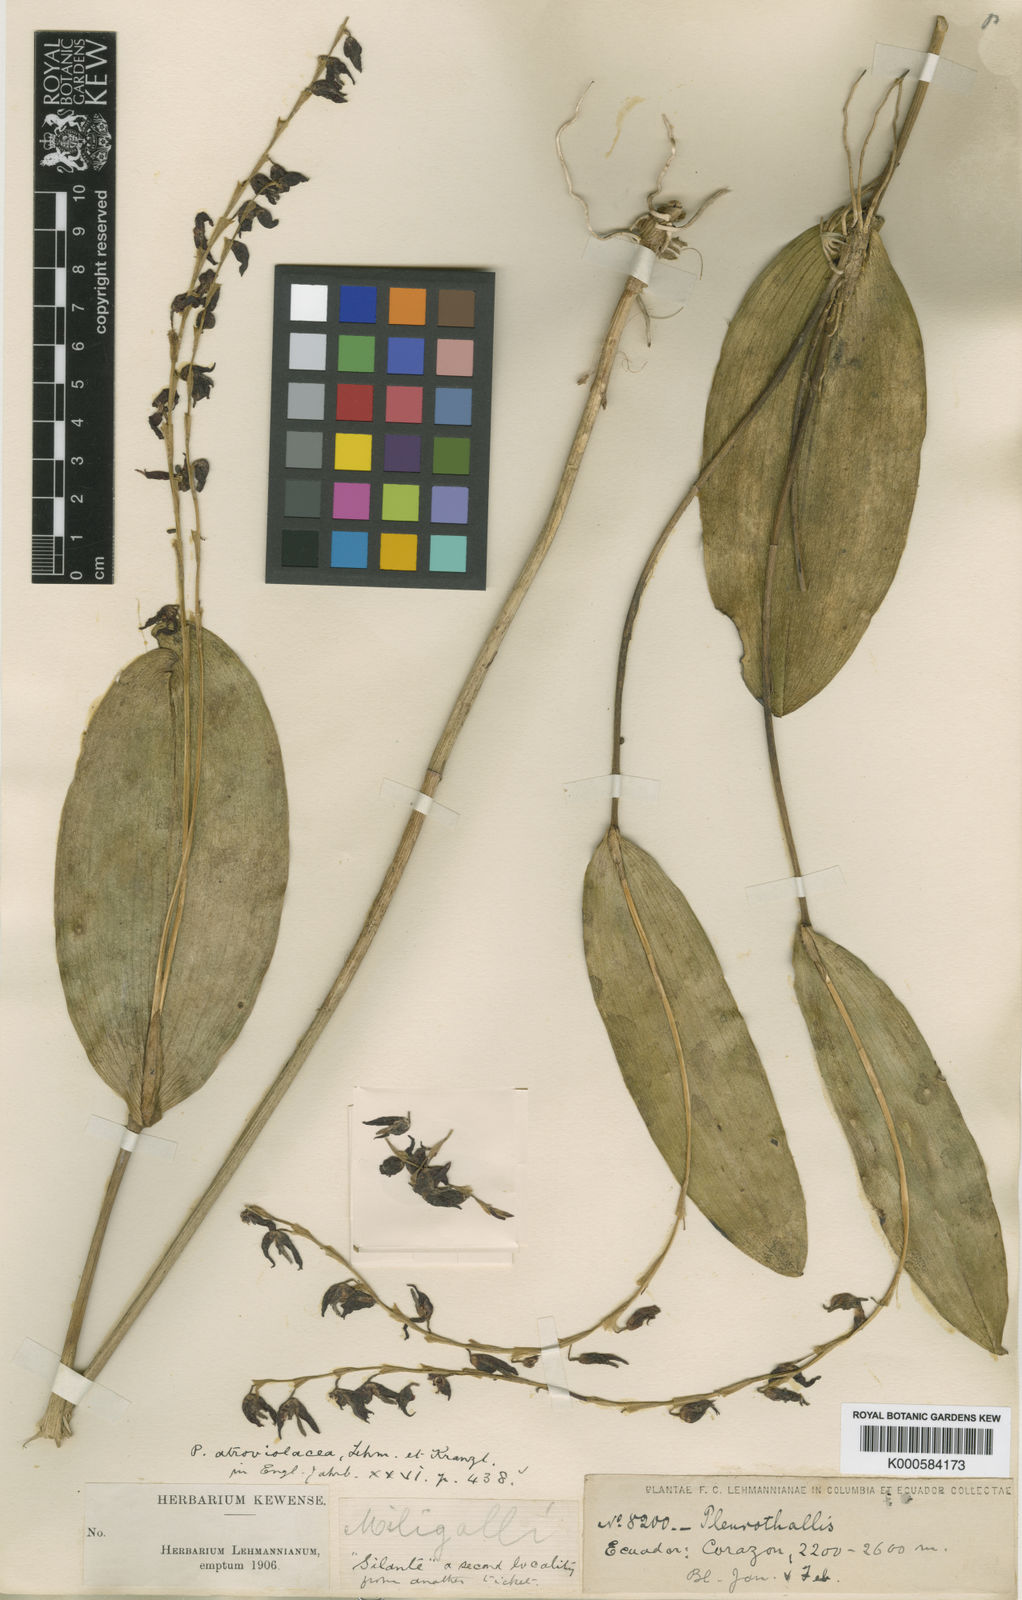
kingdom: Plantae
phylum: Tracheophyta
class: Liliopsida
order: Asparagales
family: Orchidaceae
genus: Pleurothallis
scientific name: Pleurothallis restrepioides
